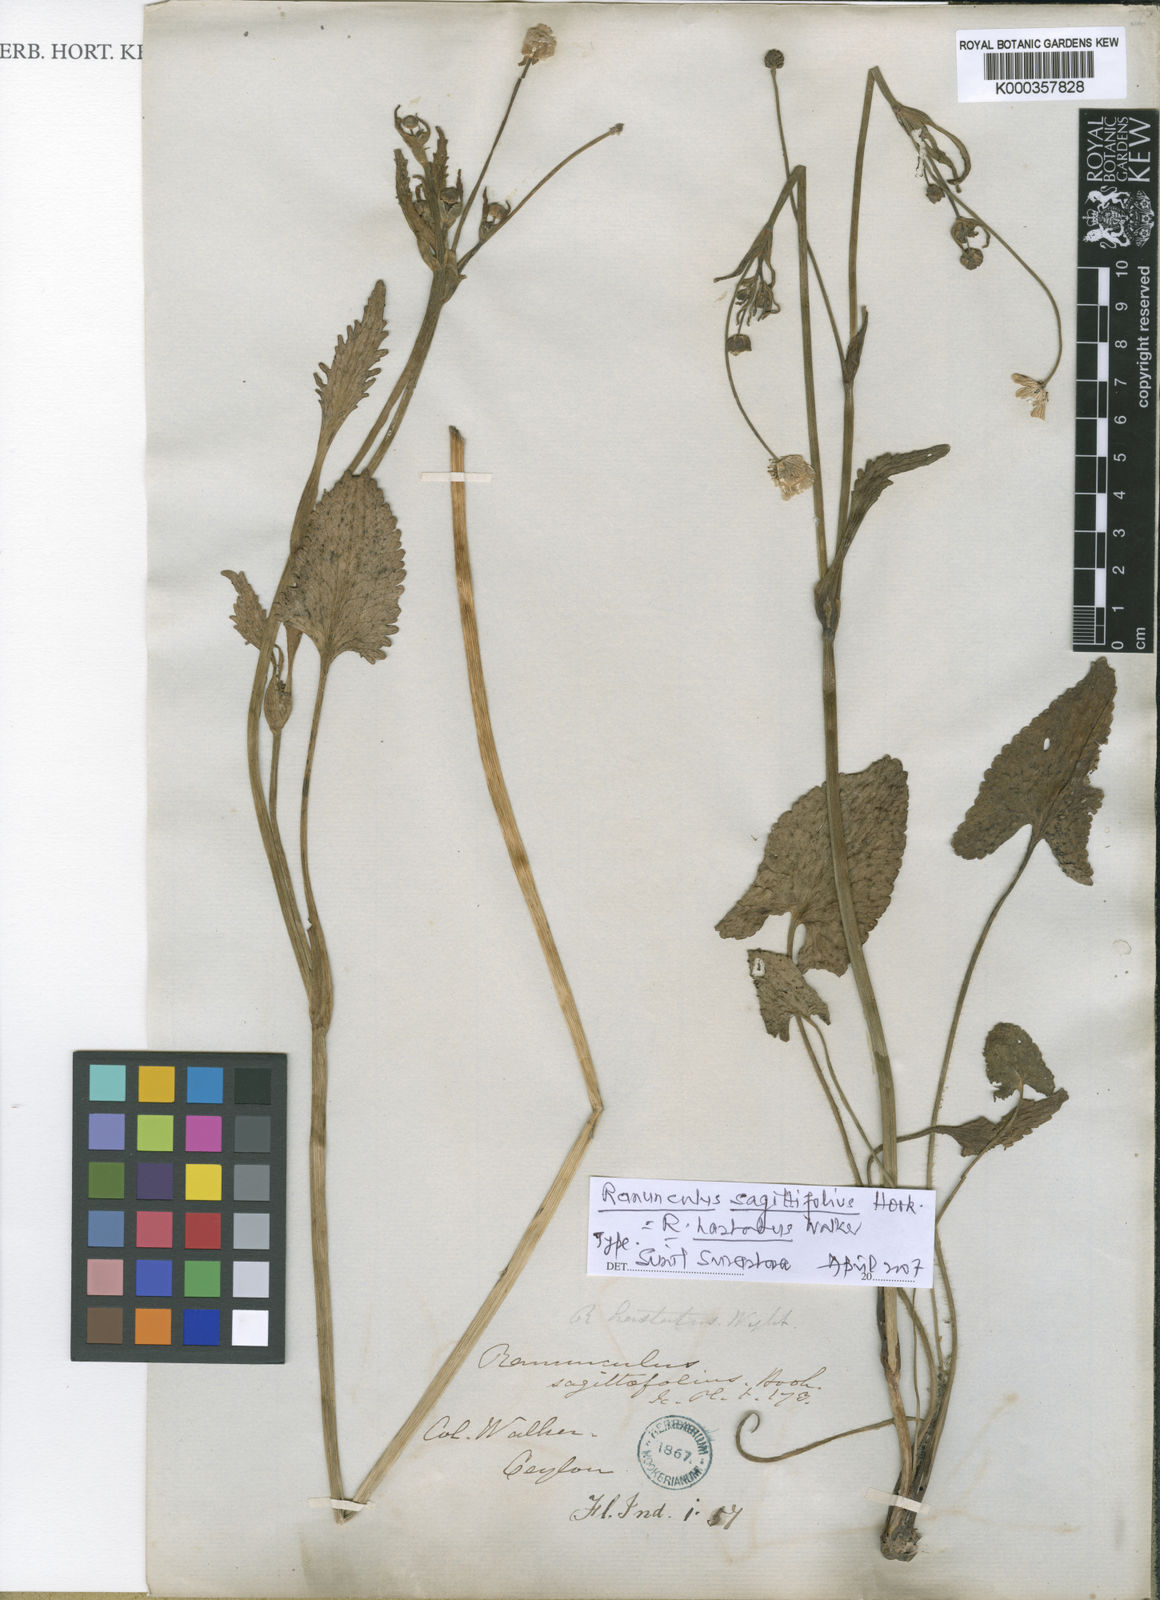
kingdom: Plantae
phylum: Tracheophyta
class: Magnoliopsida
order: Ranunculales
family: Ranunculaceae
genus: Ranunculus
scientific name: Ranunculus sagittifolius
